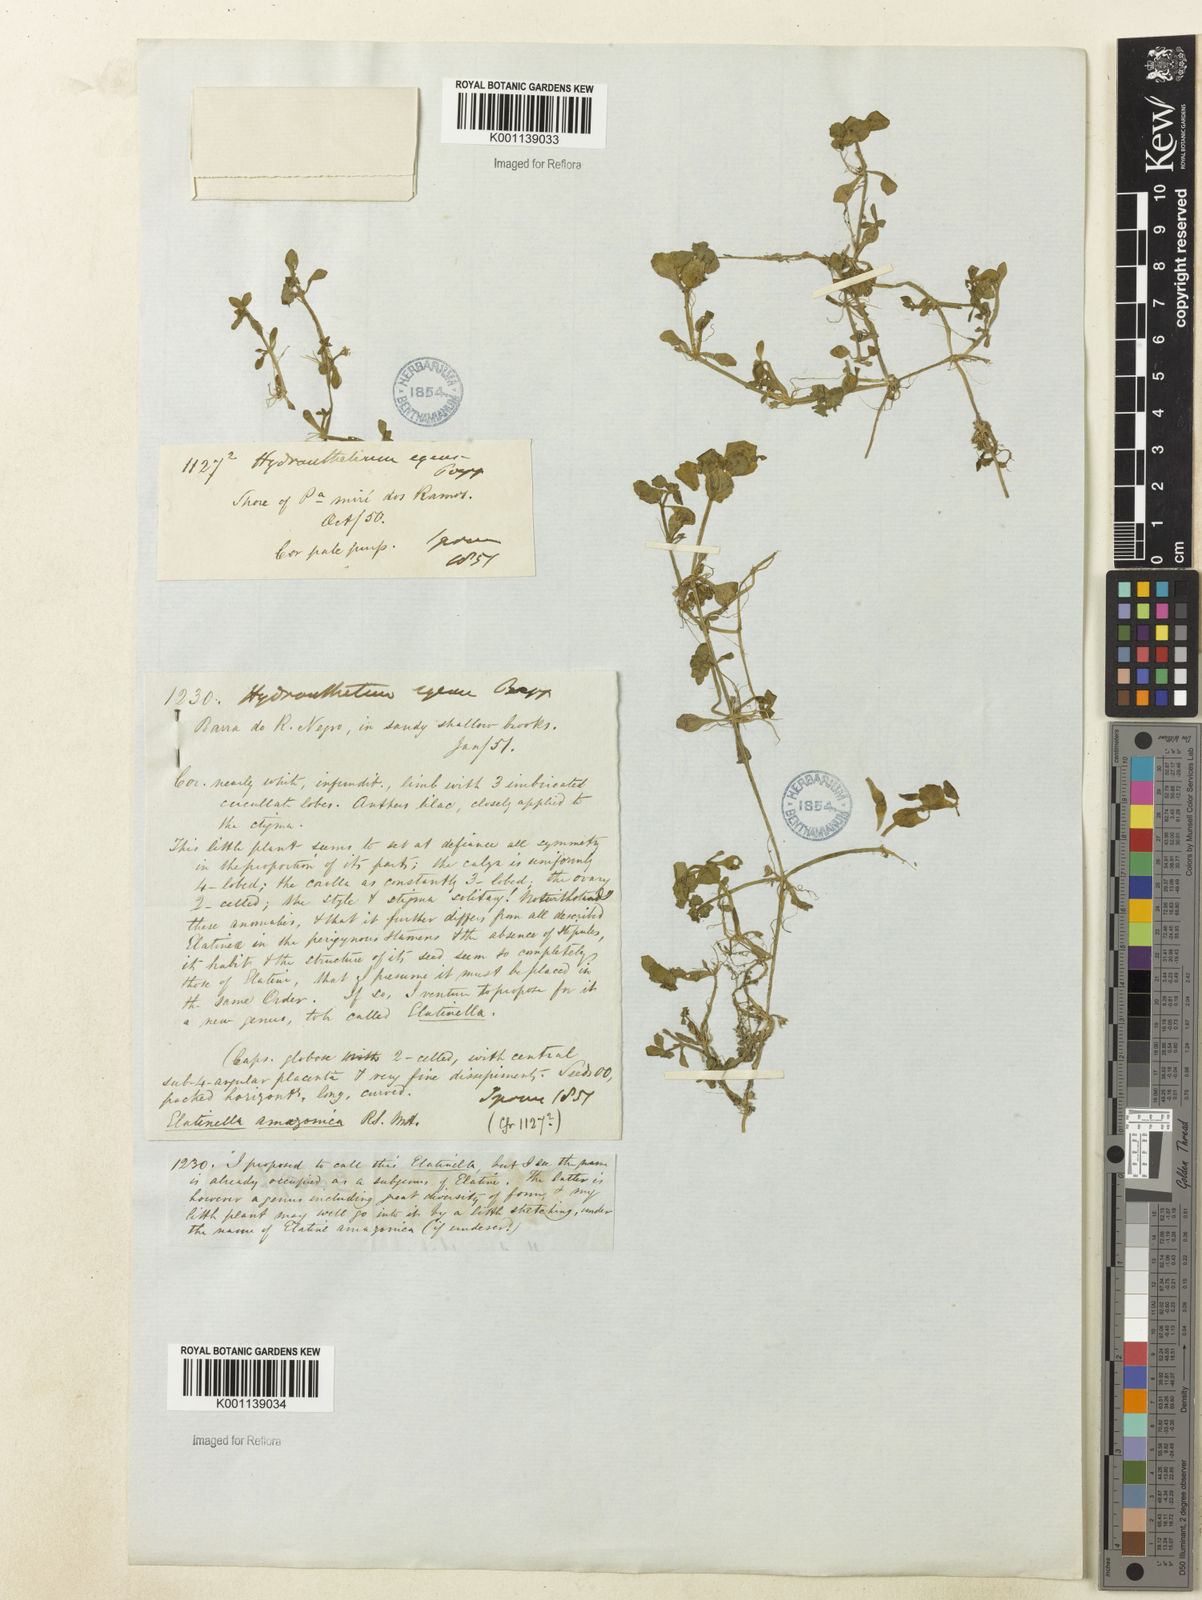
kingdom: Plantae
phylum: Tracheophyta
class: Magnoliopsida
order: Lamiales
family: Plantaginaceae
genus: Bacopa
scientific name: Bacopa egensis
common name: Brazilian waterhyssop
